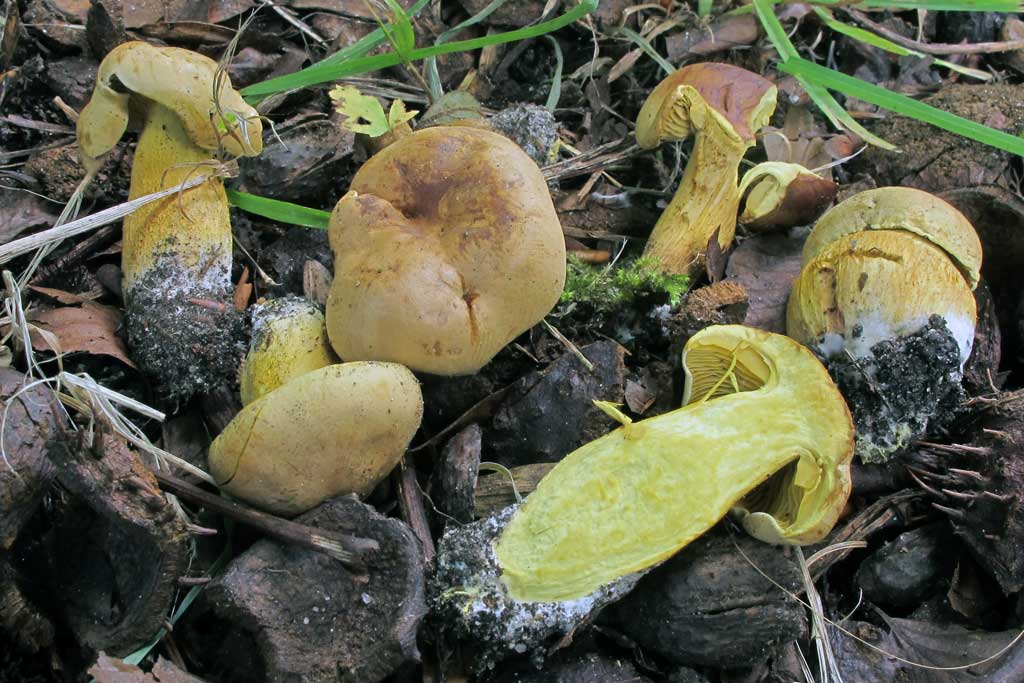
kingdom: Fungi
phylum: Basidiomycota
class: Agaricomycetes
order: Agaricales
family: Tricholomataceae
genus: Tricholoma
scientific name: Tricholoma sulphureum
